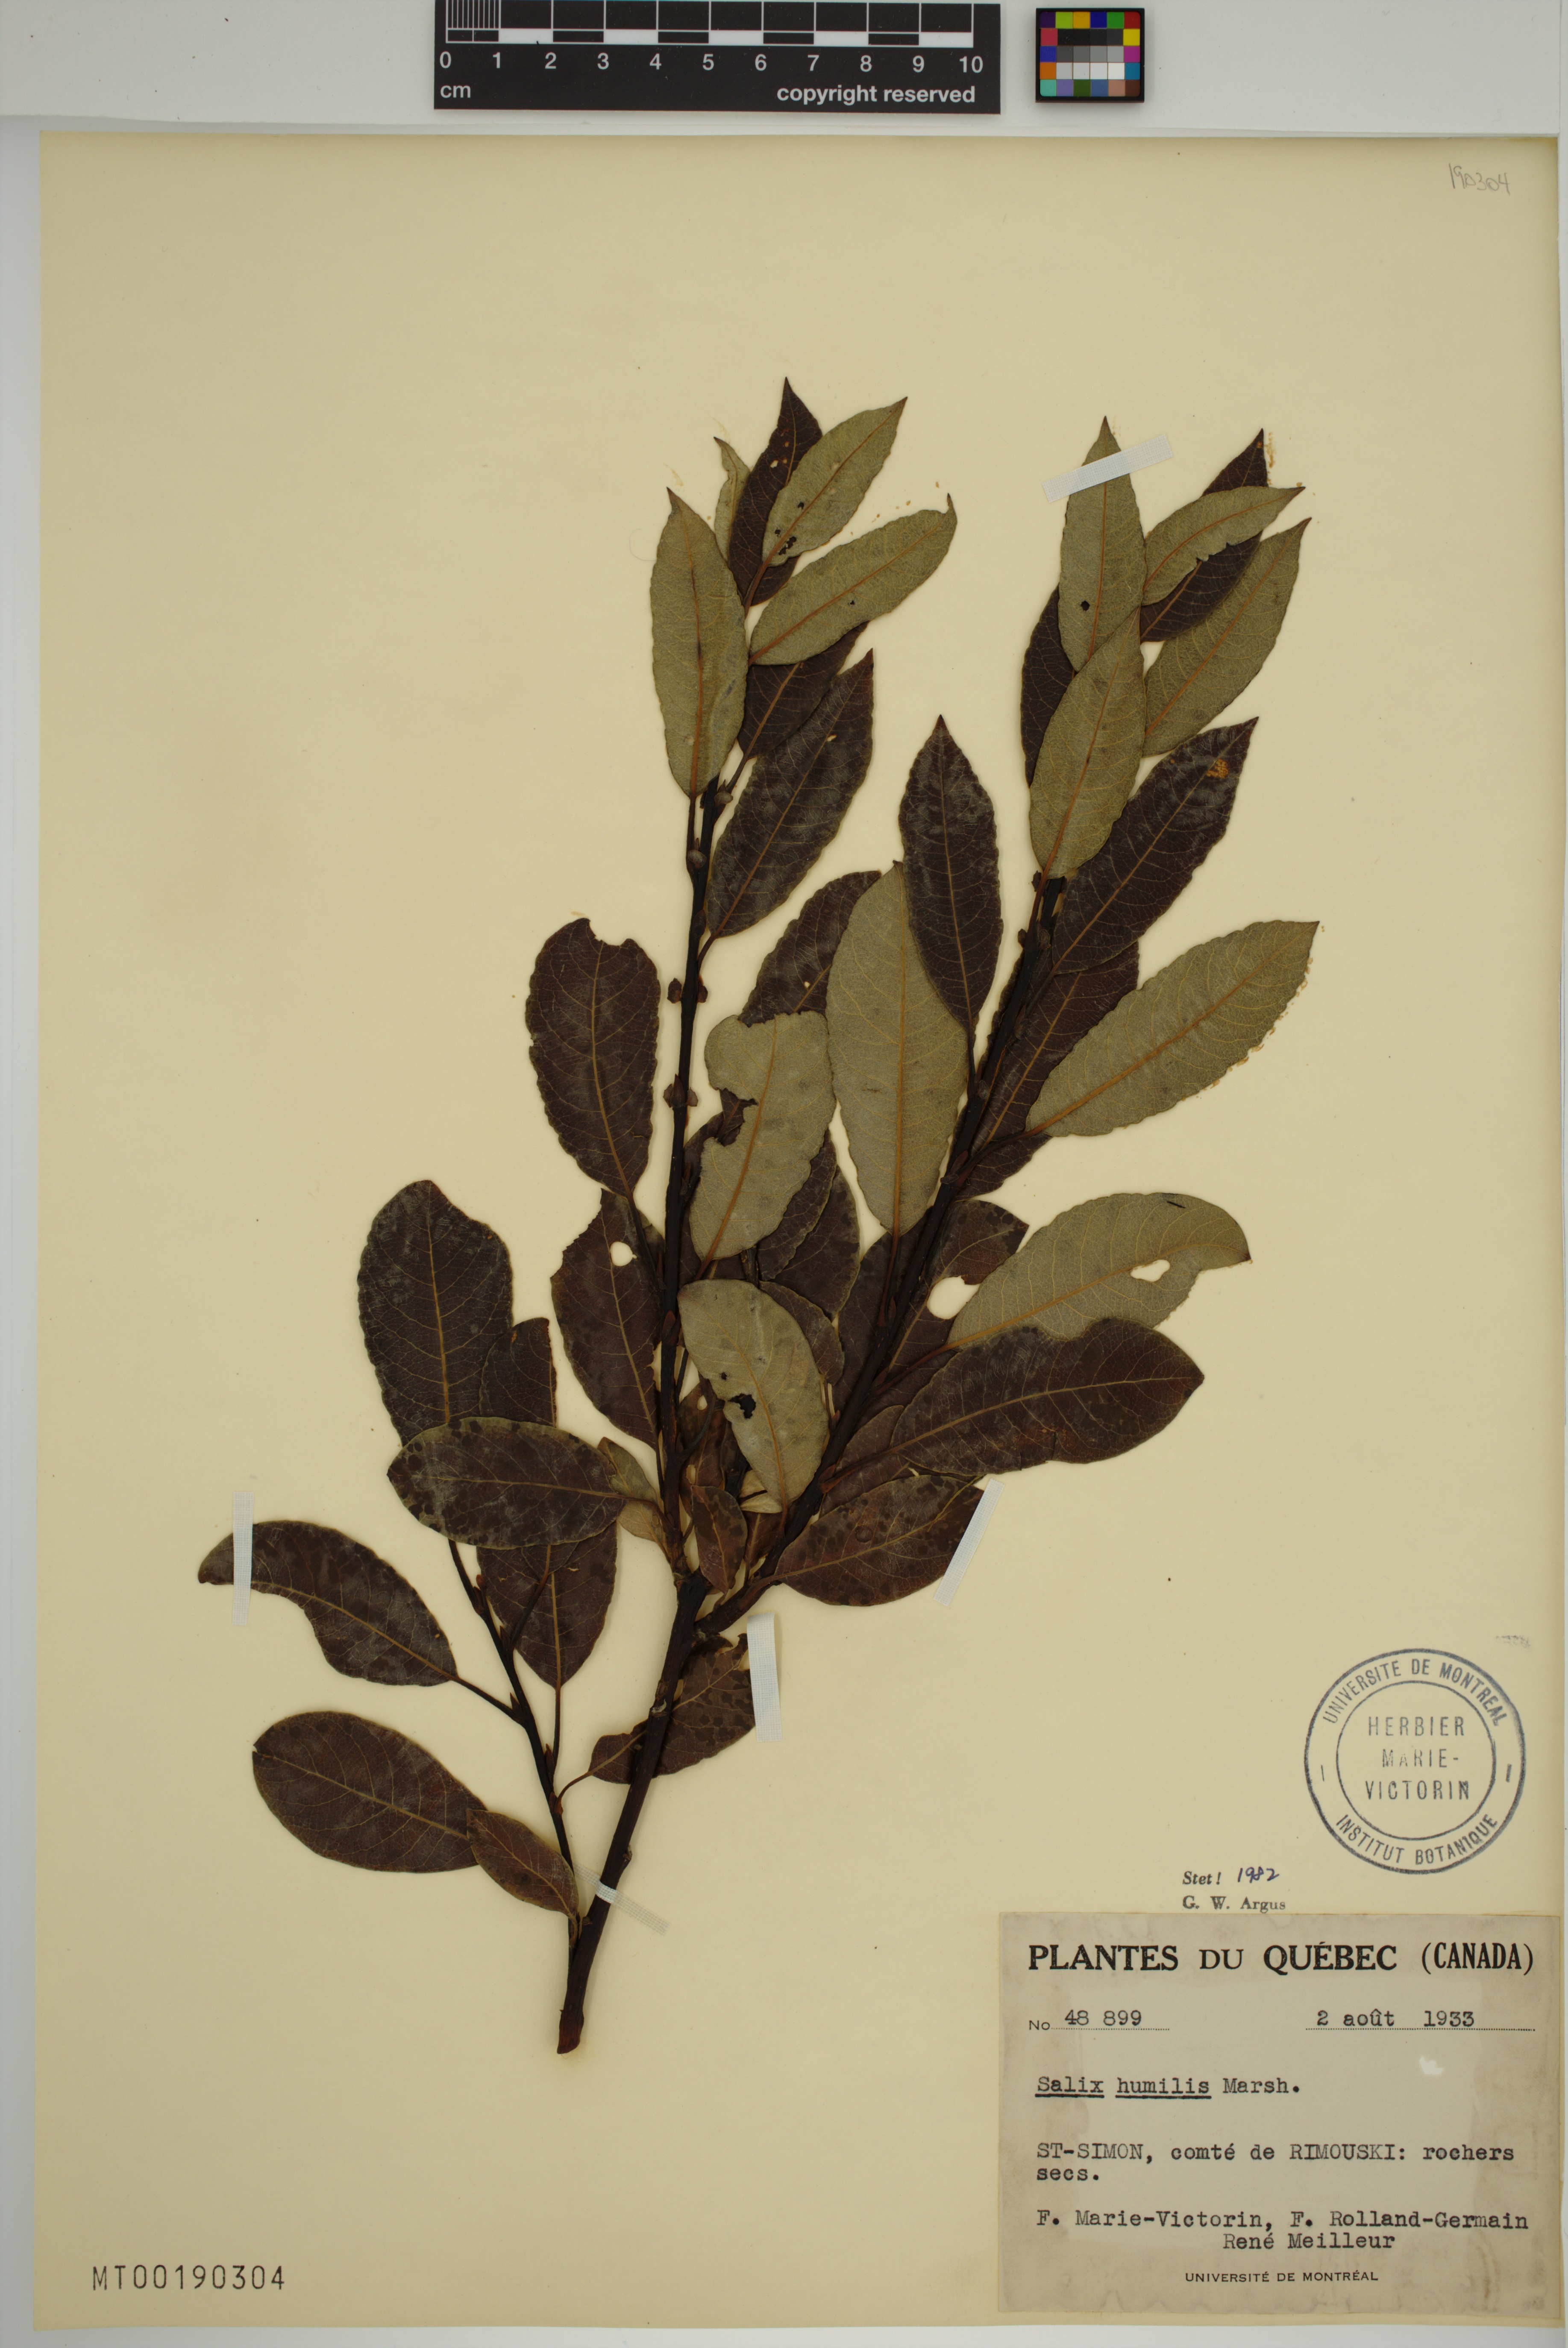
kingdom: Plantae
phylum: Tracheophyta
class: Magnoliopsida
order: Malpighiales
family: Salicaceae
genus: Salix
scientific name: Salix humilis
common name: Prairie willow
